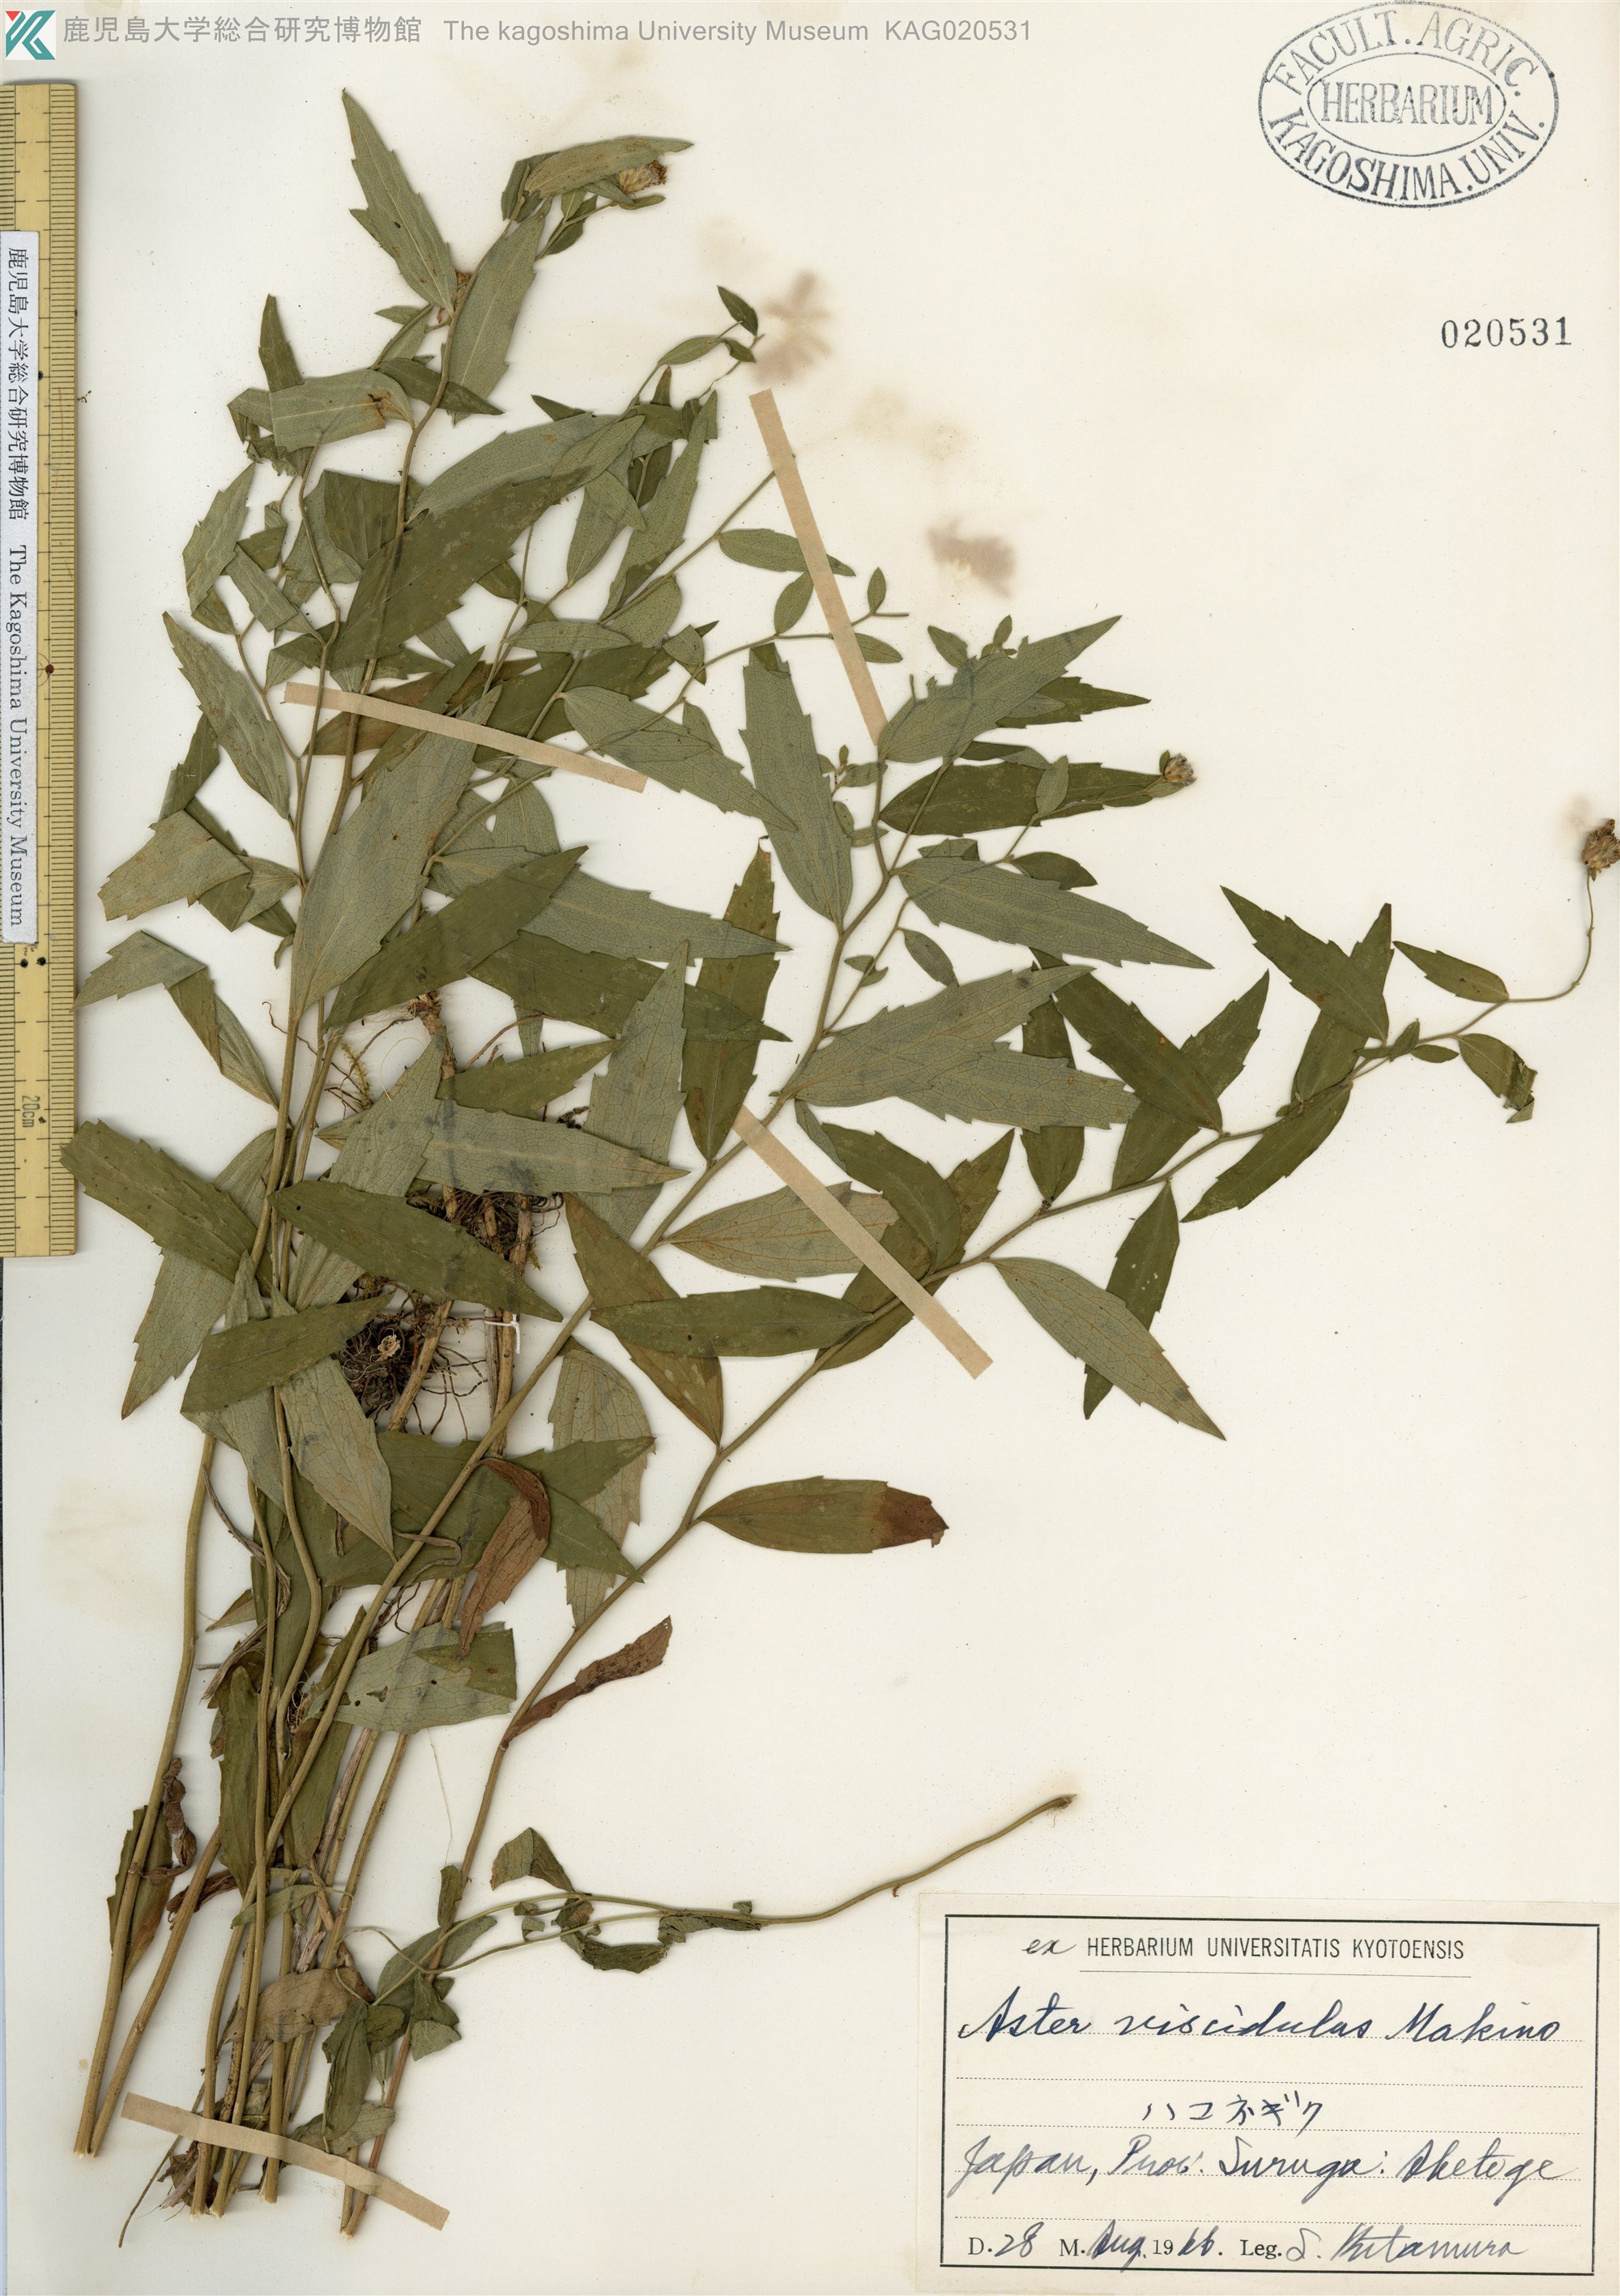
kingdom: Plantae
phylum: Tracheophyta
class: Magnoliopsida
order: Asterales
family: Asteraceae
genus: Aster
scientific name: Aster viscidulus
